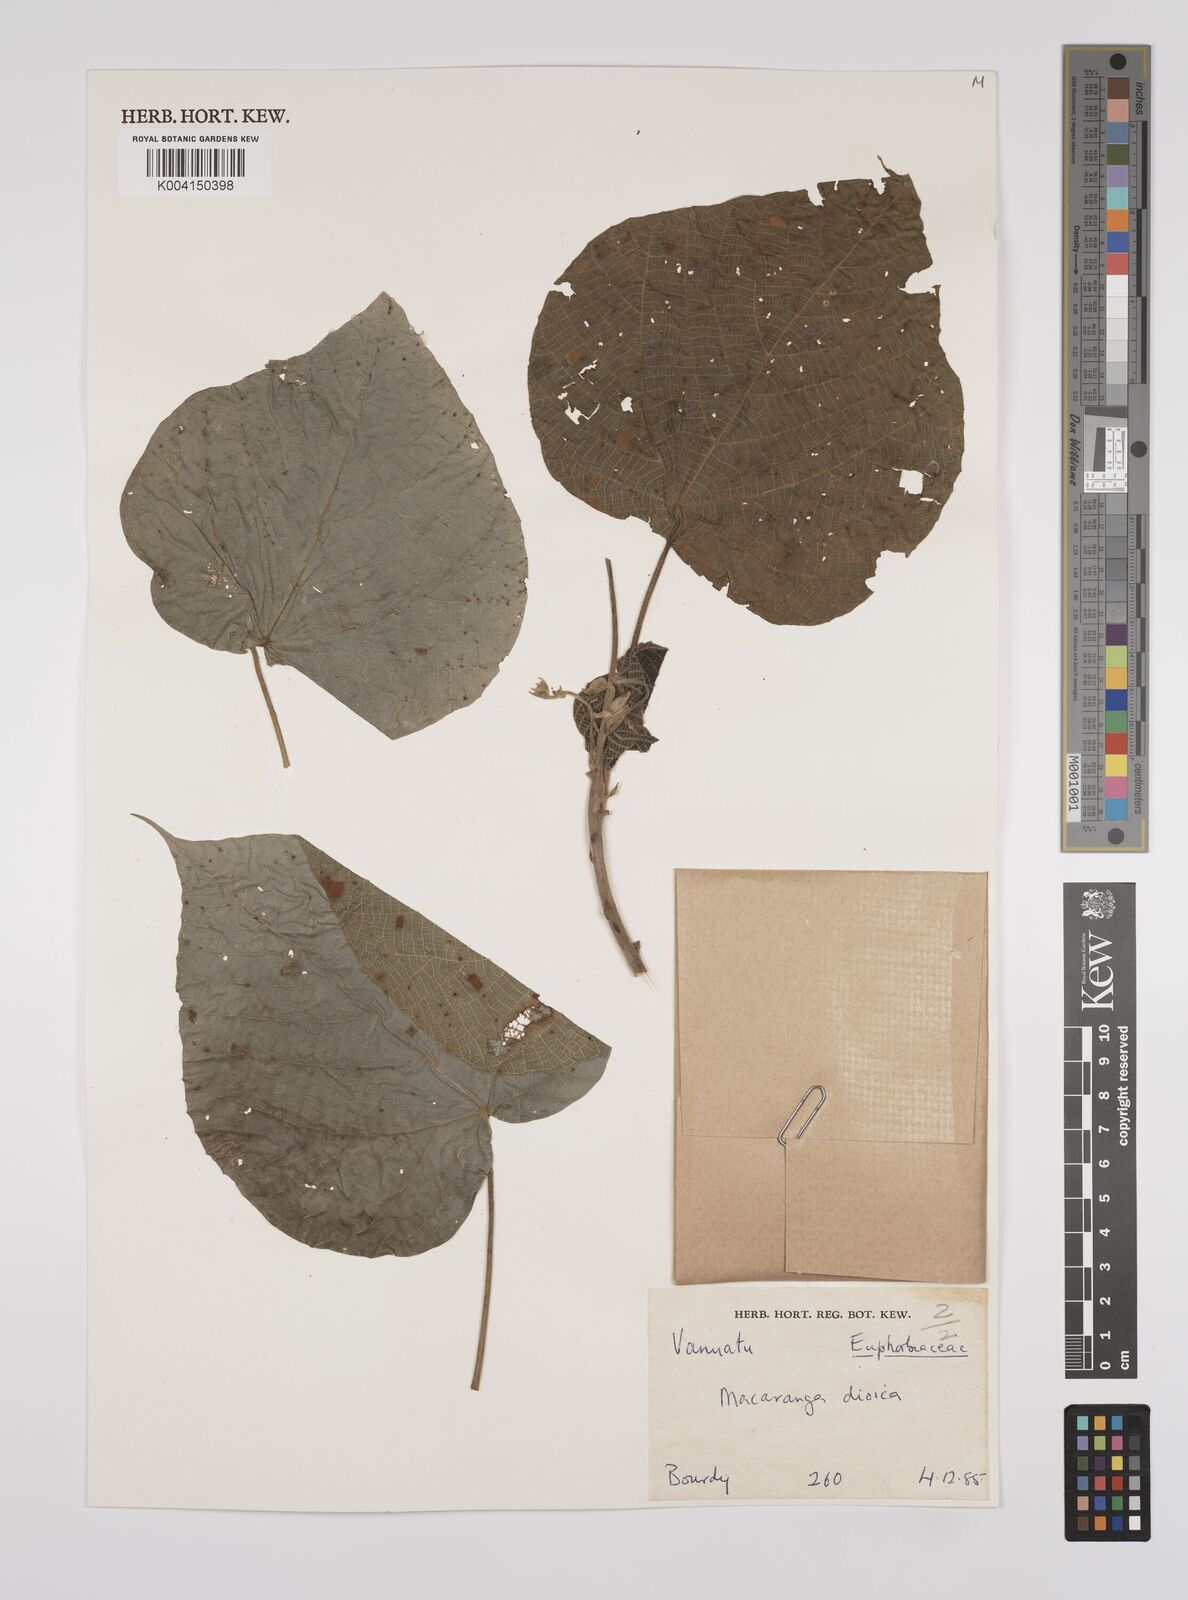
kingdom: Plantae
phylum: Tracheophyta
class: Magnoliopsida
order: Malpighiales
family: Euphorbiaceae
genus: Macaranga
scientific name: Macaranga dioica
